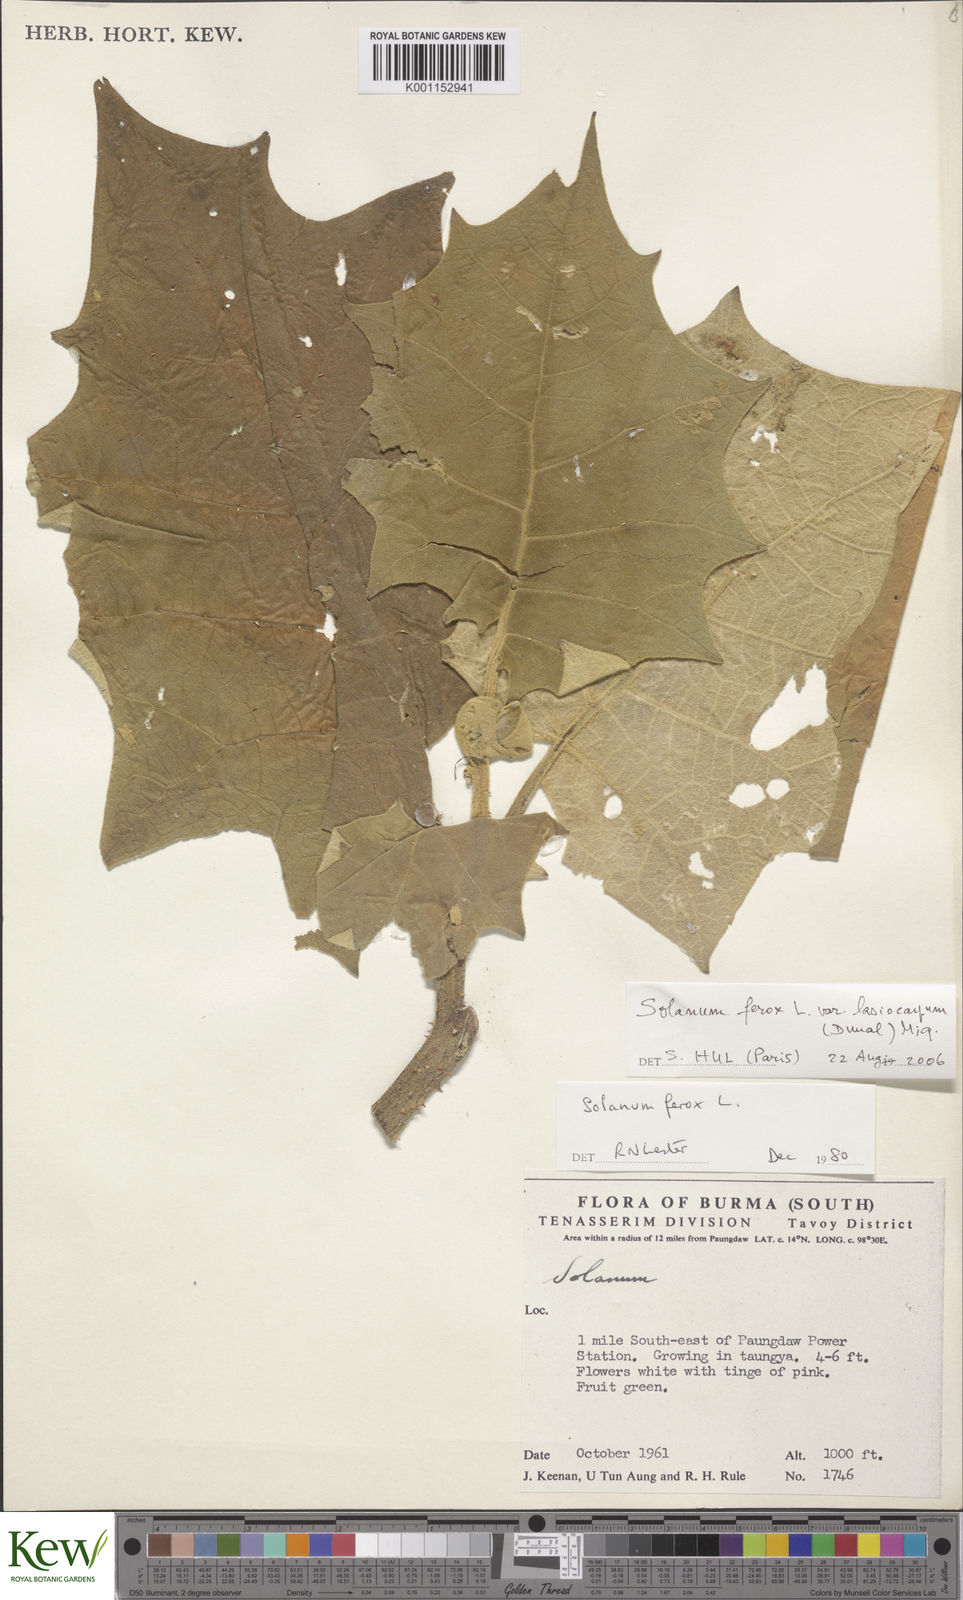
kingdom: Plantae
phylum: Tracheophyta
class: Magnoliopsida
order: Solanales
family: Solanaceae
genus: Solanum
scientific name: Solanum
